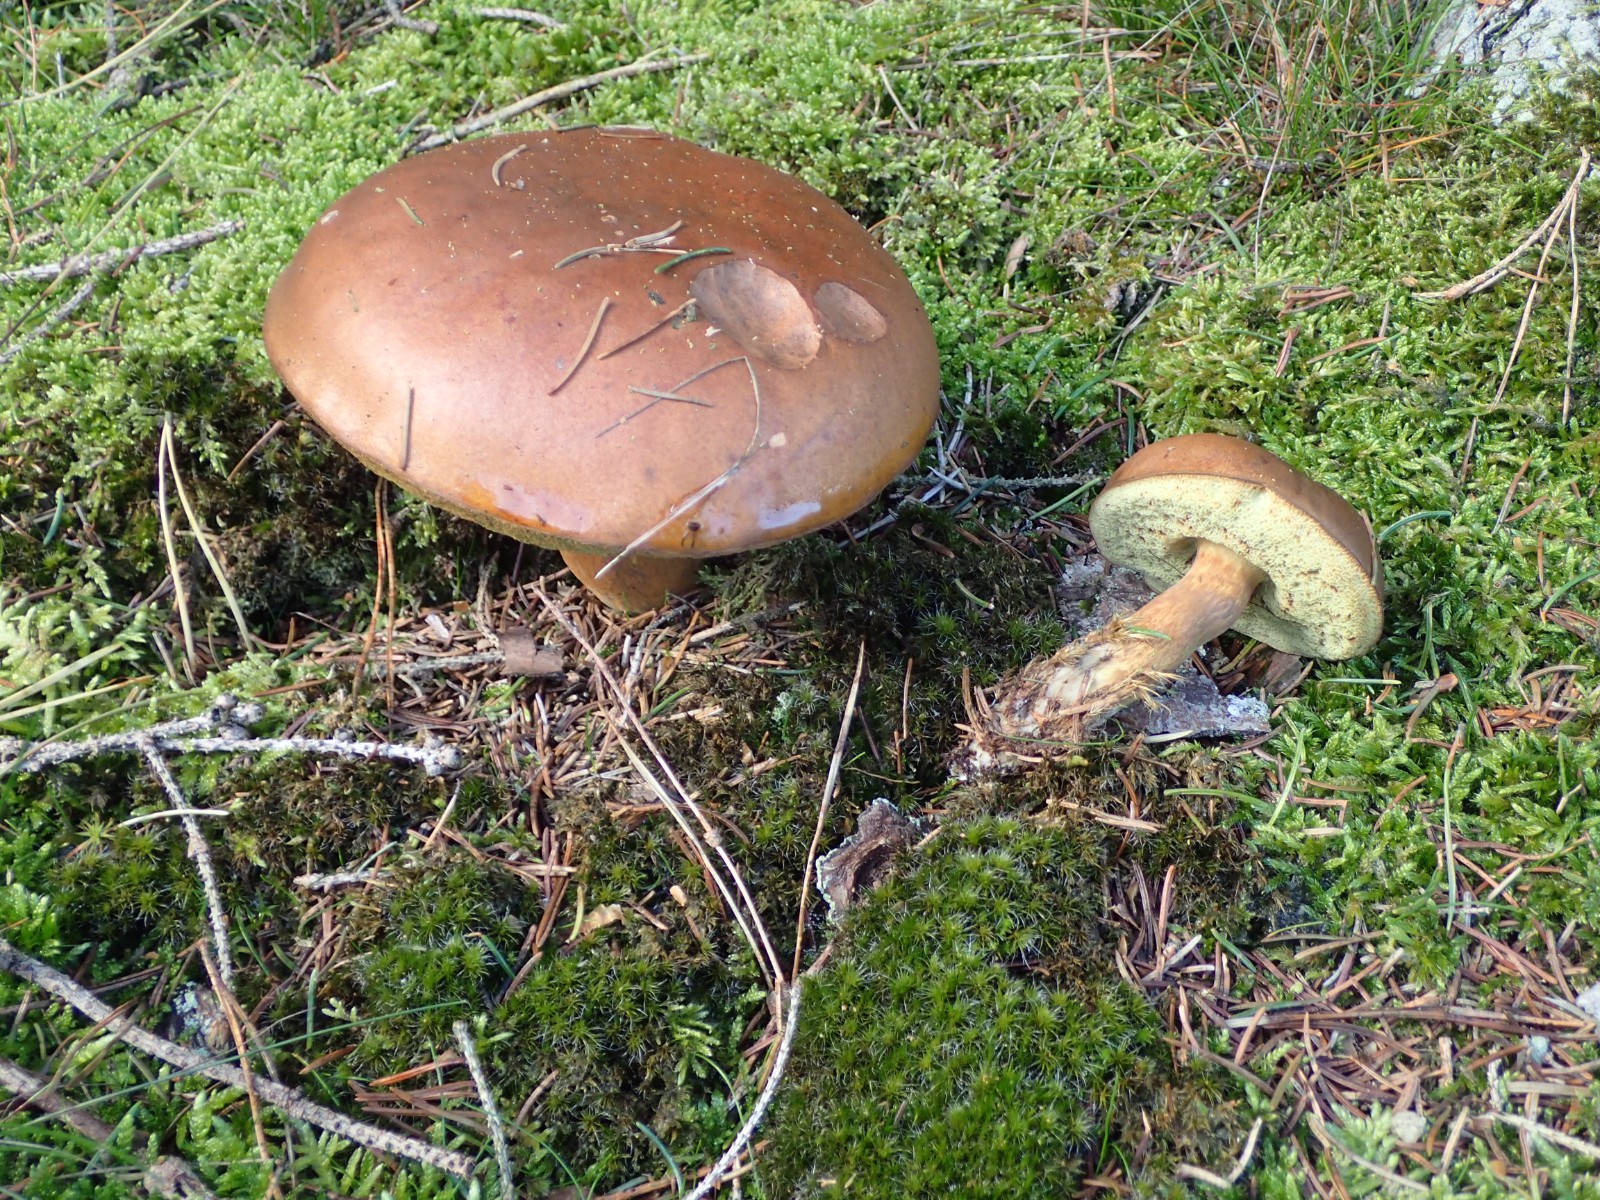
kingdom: Fungi
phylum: Basidiomycota
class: Agaricomycetes
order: Boletales
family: Boletaceae
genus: Imleria
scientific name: Imleria badia
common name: brunstokket rørhat
